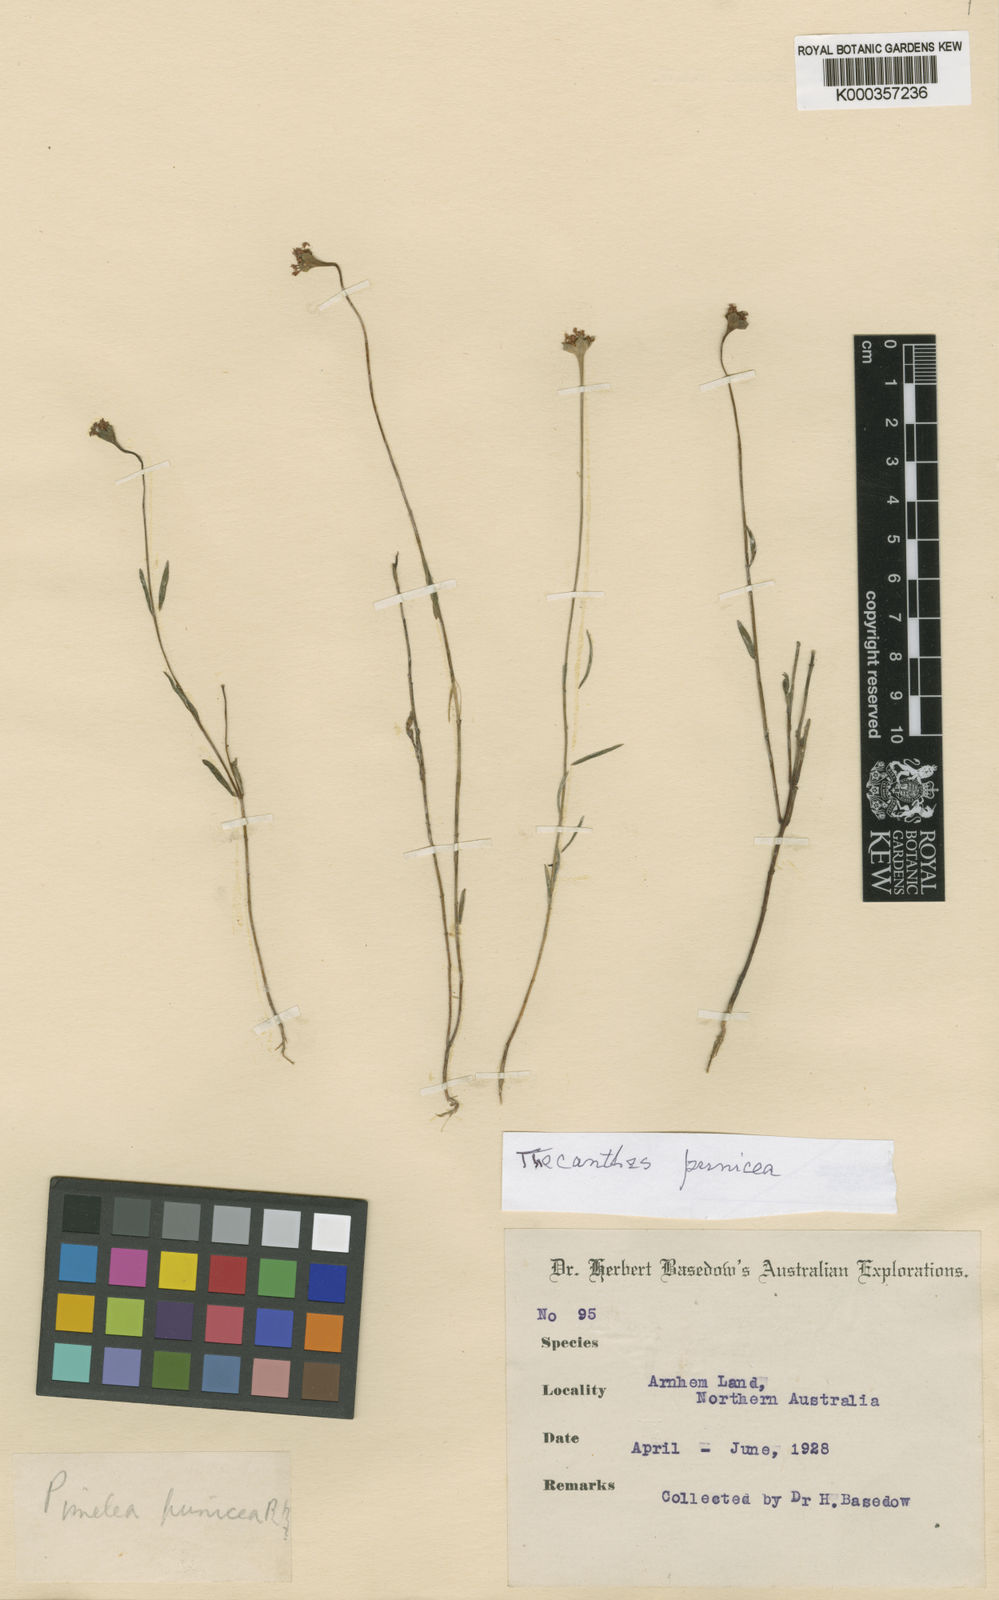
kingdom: Plantae
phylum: Tracheophyta
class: Magnoliopsida
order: Malvales
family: Thymelaeaceae
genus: Pimelea
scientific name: Pimelea punicea
